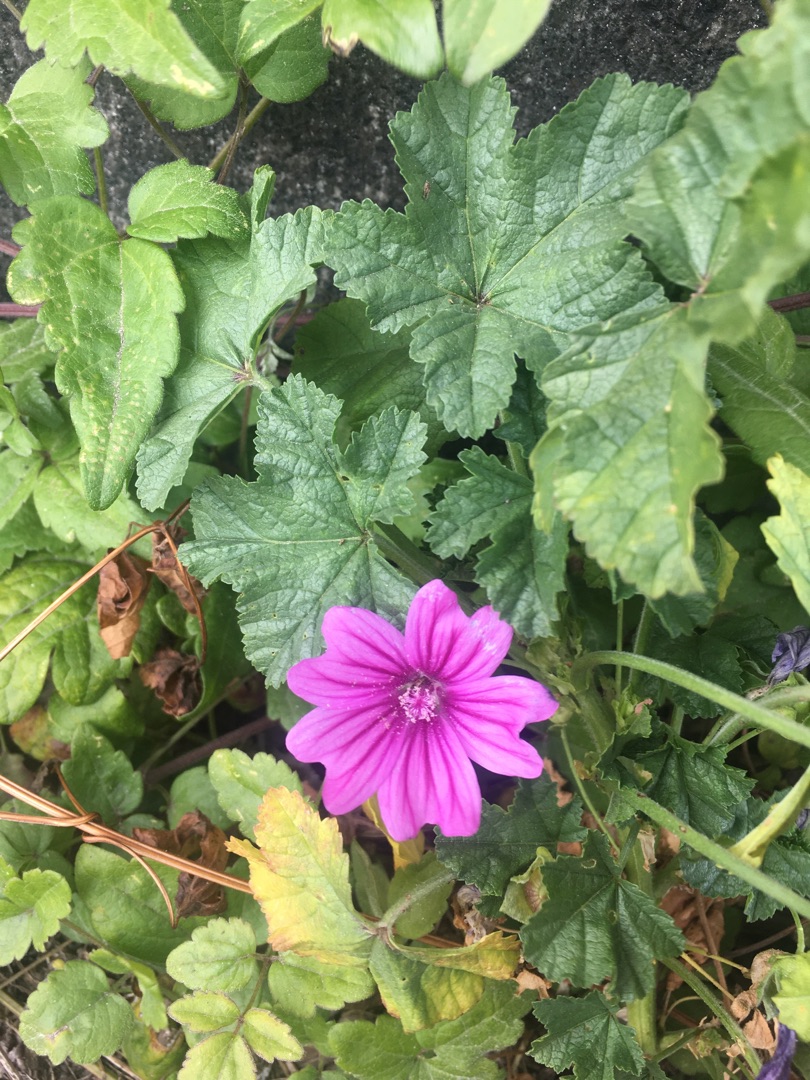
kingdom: Plantae
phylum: Tracheophyta
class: Magnoliopsida
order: Malvales
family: Malvaceae
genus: Malva
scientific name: Malva sylvestris
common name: Almindelig katost
